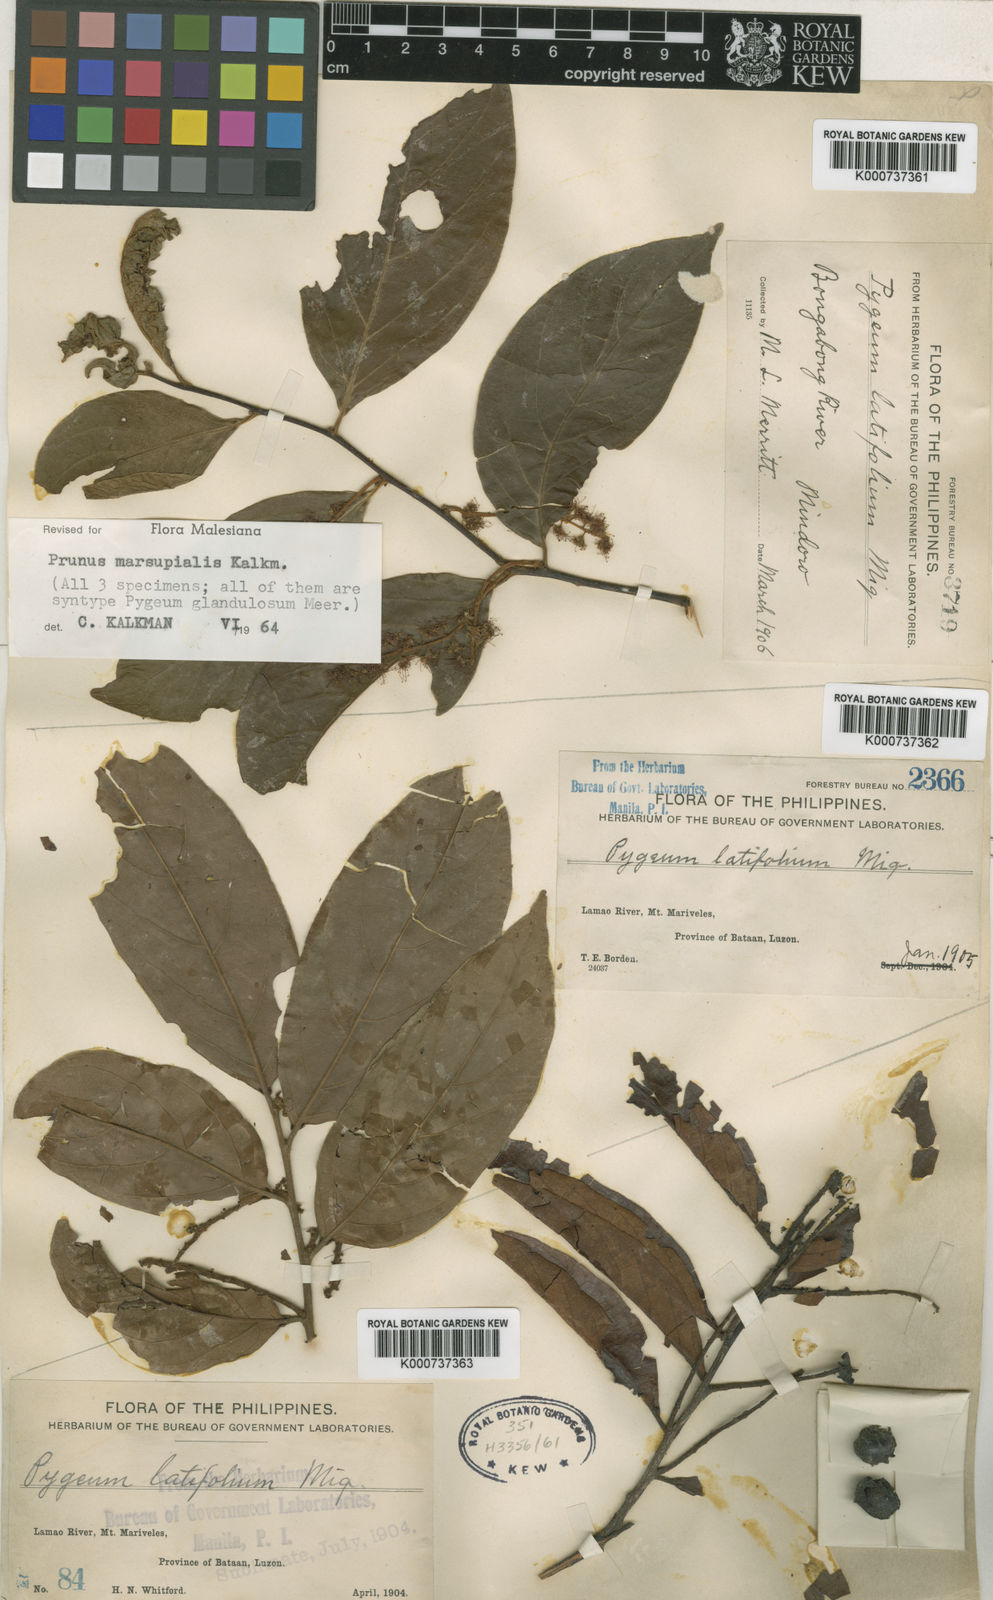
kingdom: Plantae
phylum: Tracheophyta
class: Magnoliopsida
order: Rosales
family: Rosaceae
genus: Prunus
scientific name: Prunus marsupialis
